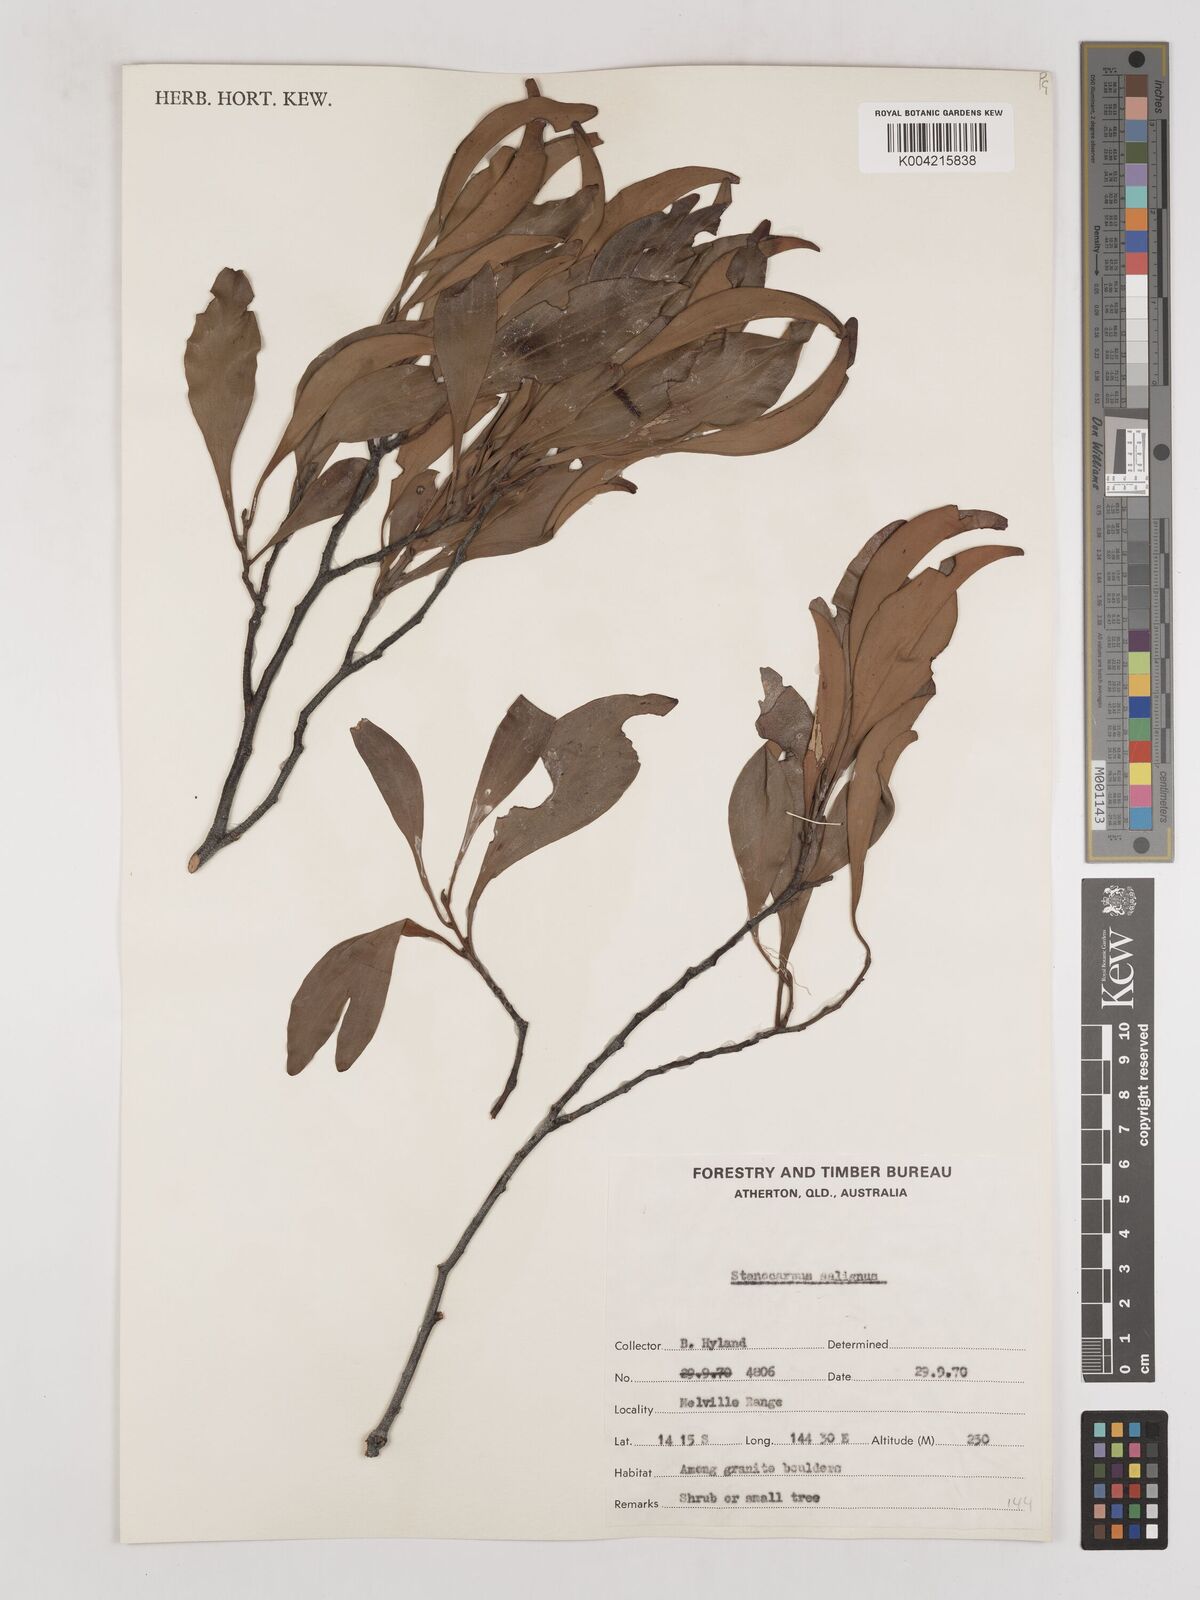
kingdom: Plantae
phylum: Tracheophyta
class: Magnoliopsida
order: Proteales
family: Proteaceae
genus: Stenocarpus
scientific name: Stenocarpus salignus
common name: Red silky-oak
